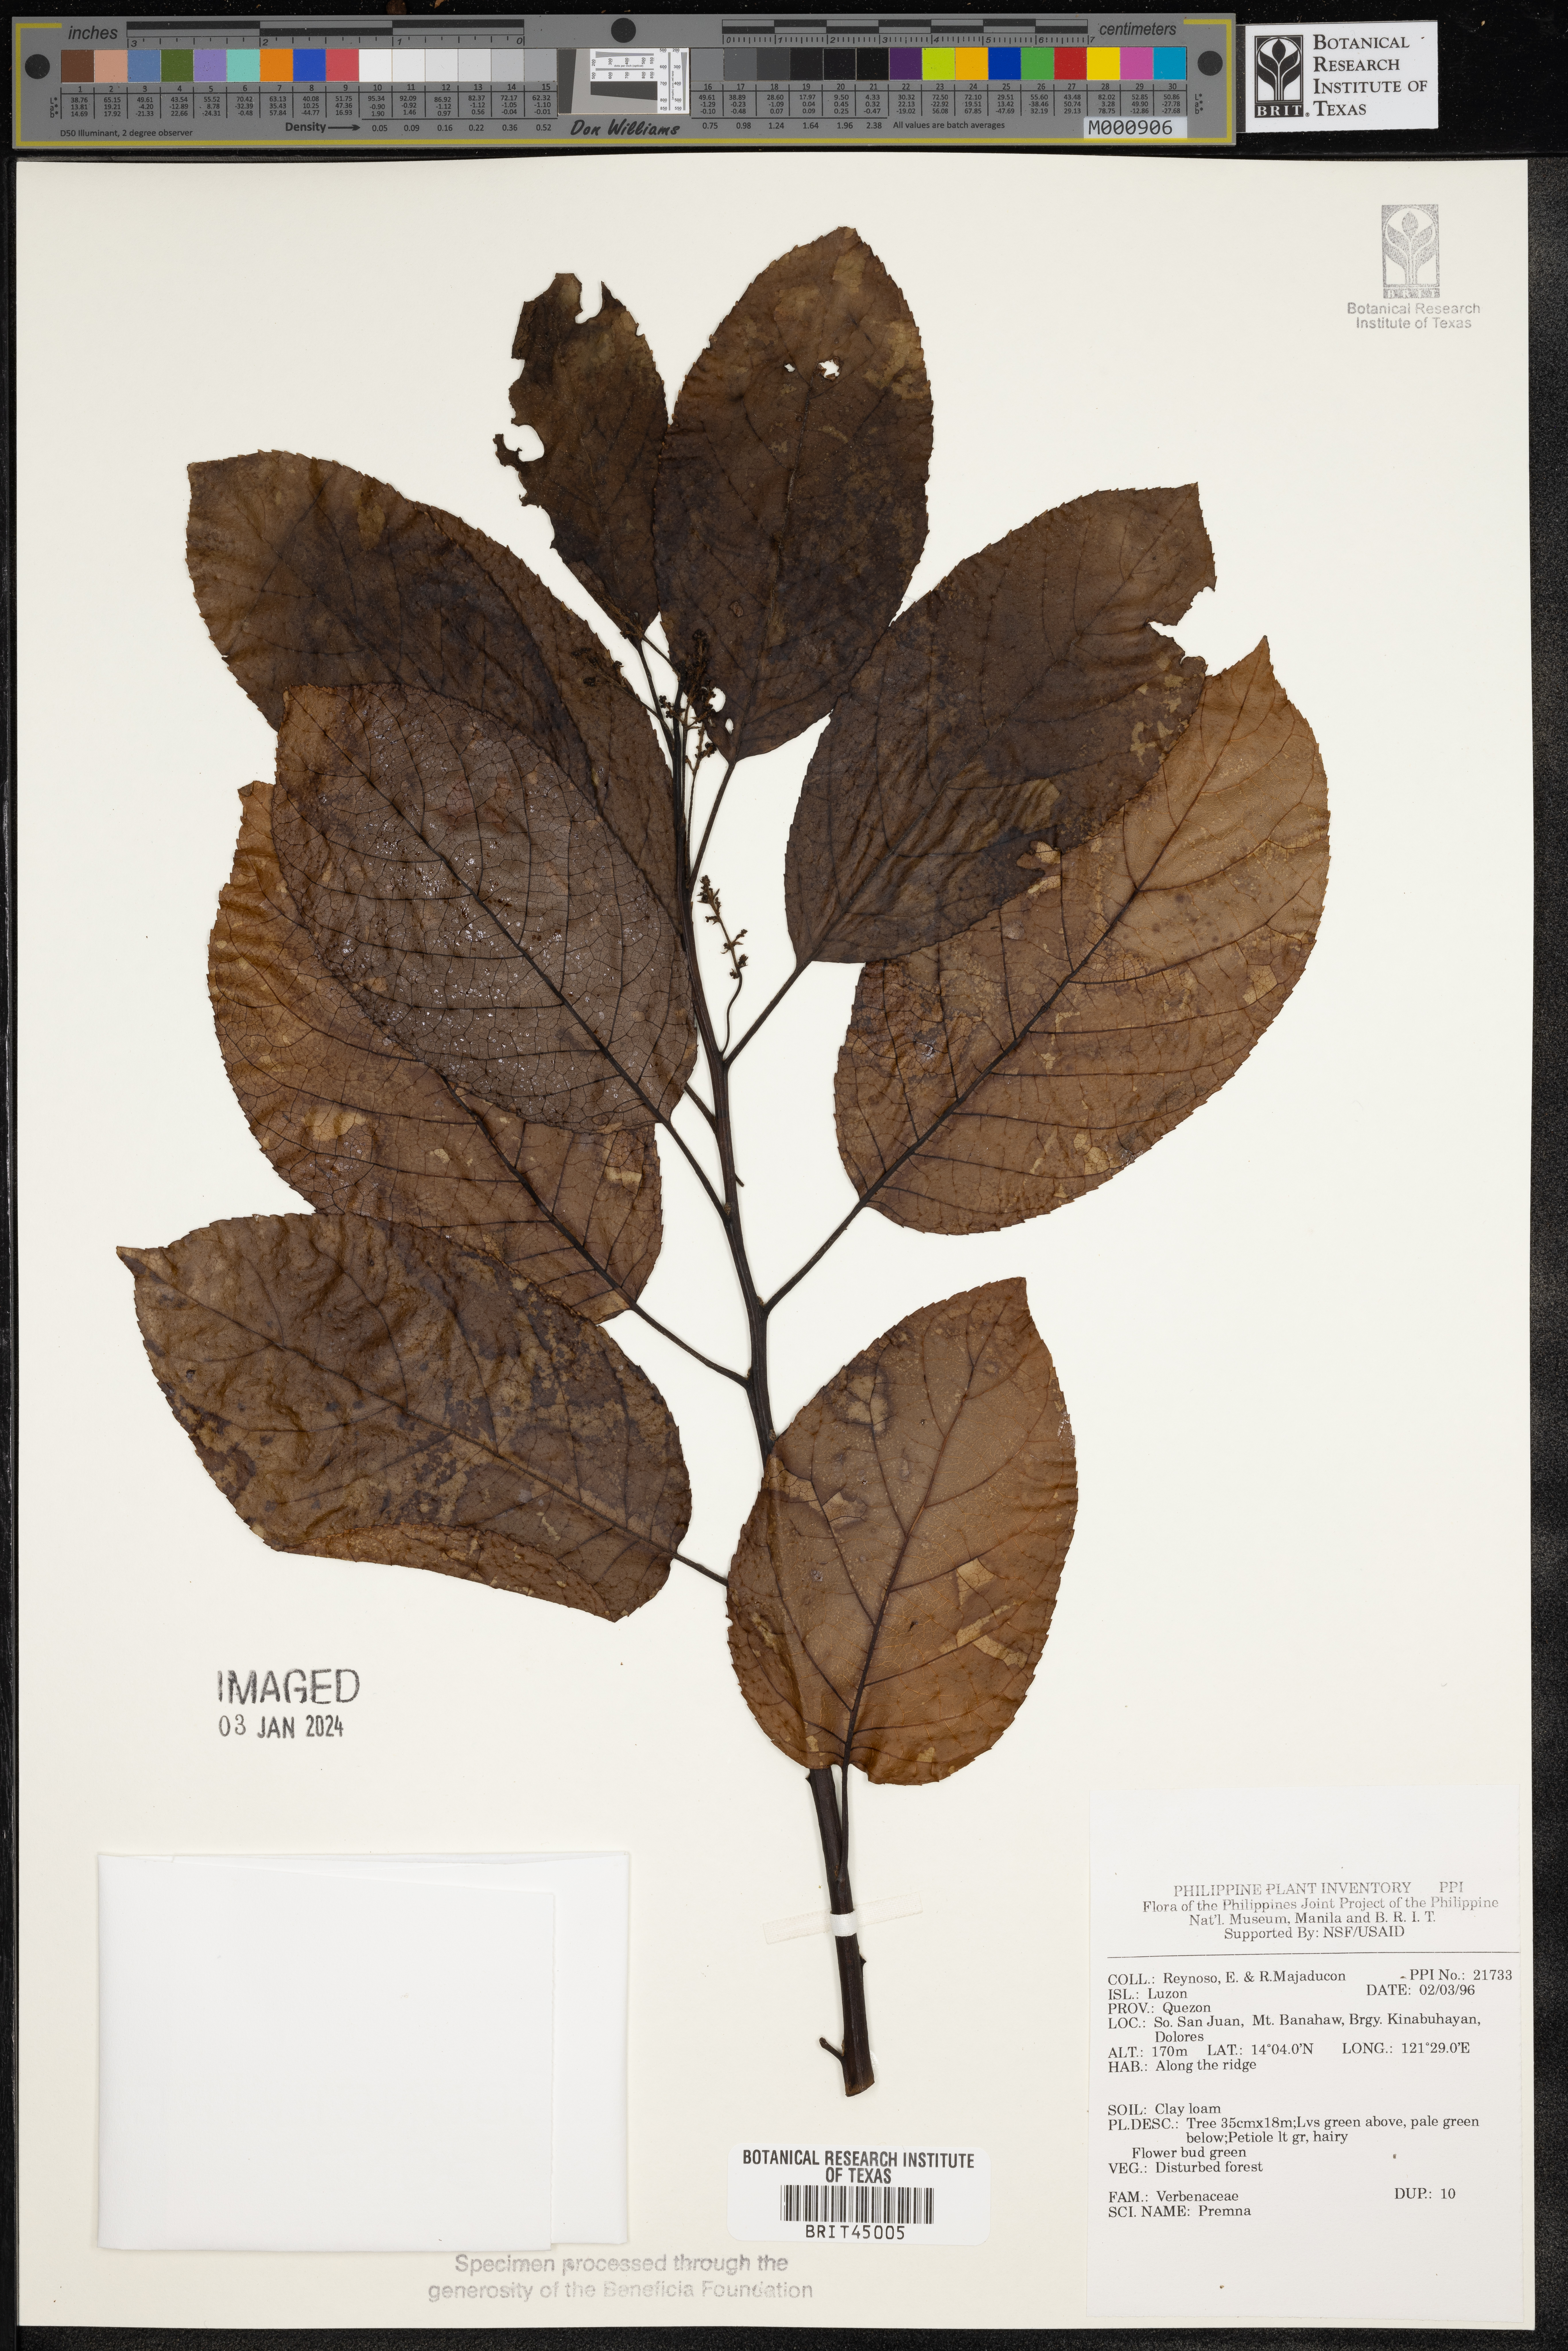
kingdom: Plantae
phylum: Tracheophyta
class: Magnoliopsida
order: Lamiales
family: Lamiaceae
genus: Premna
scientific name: Premna
